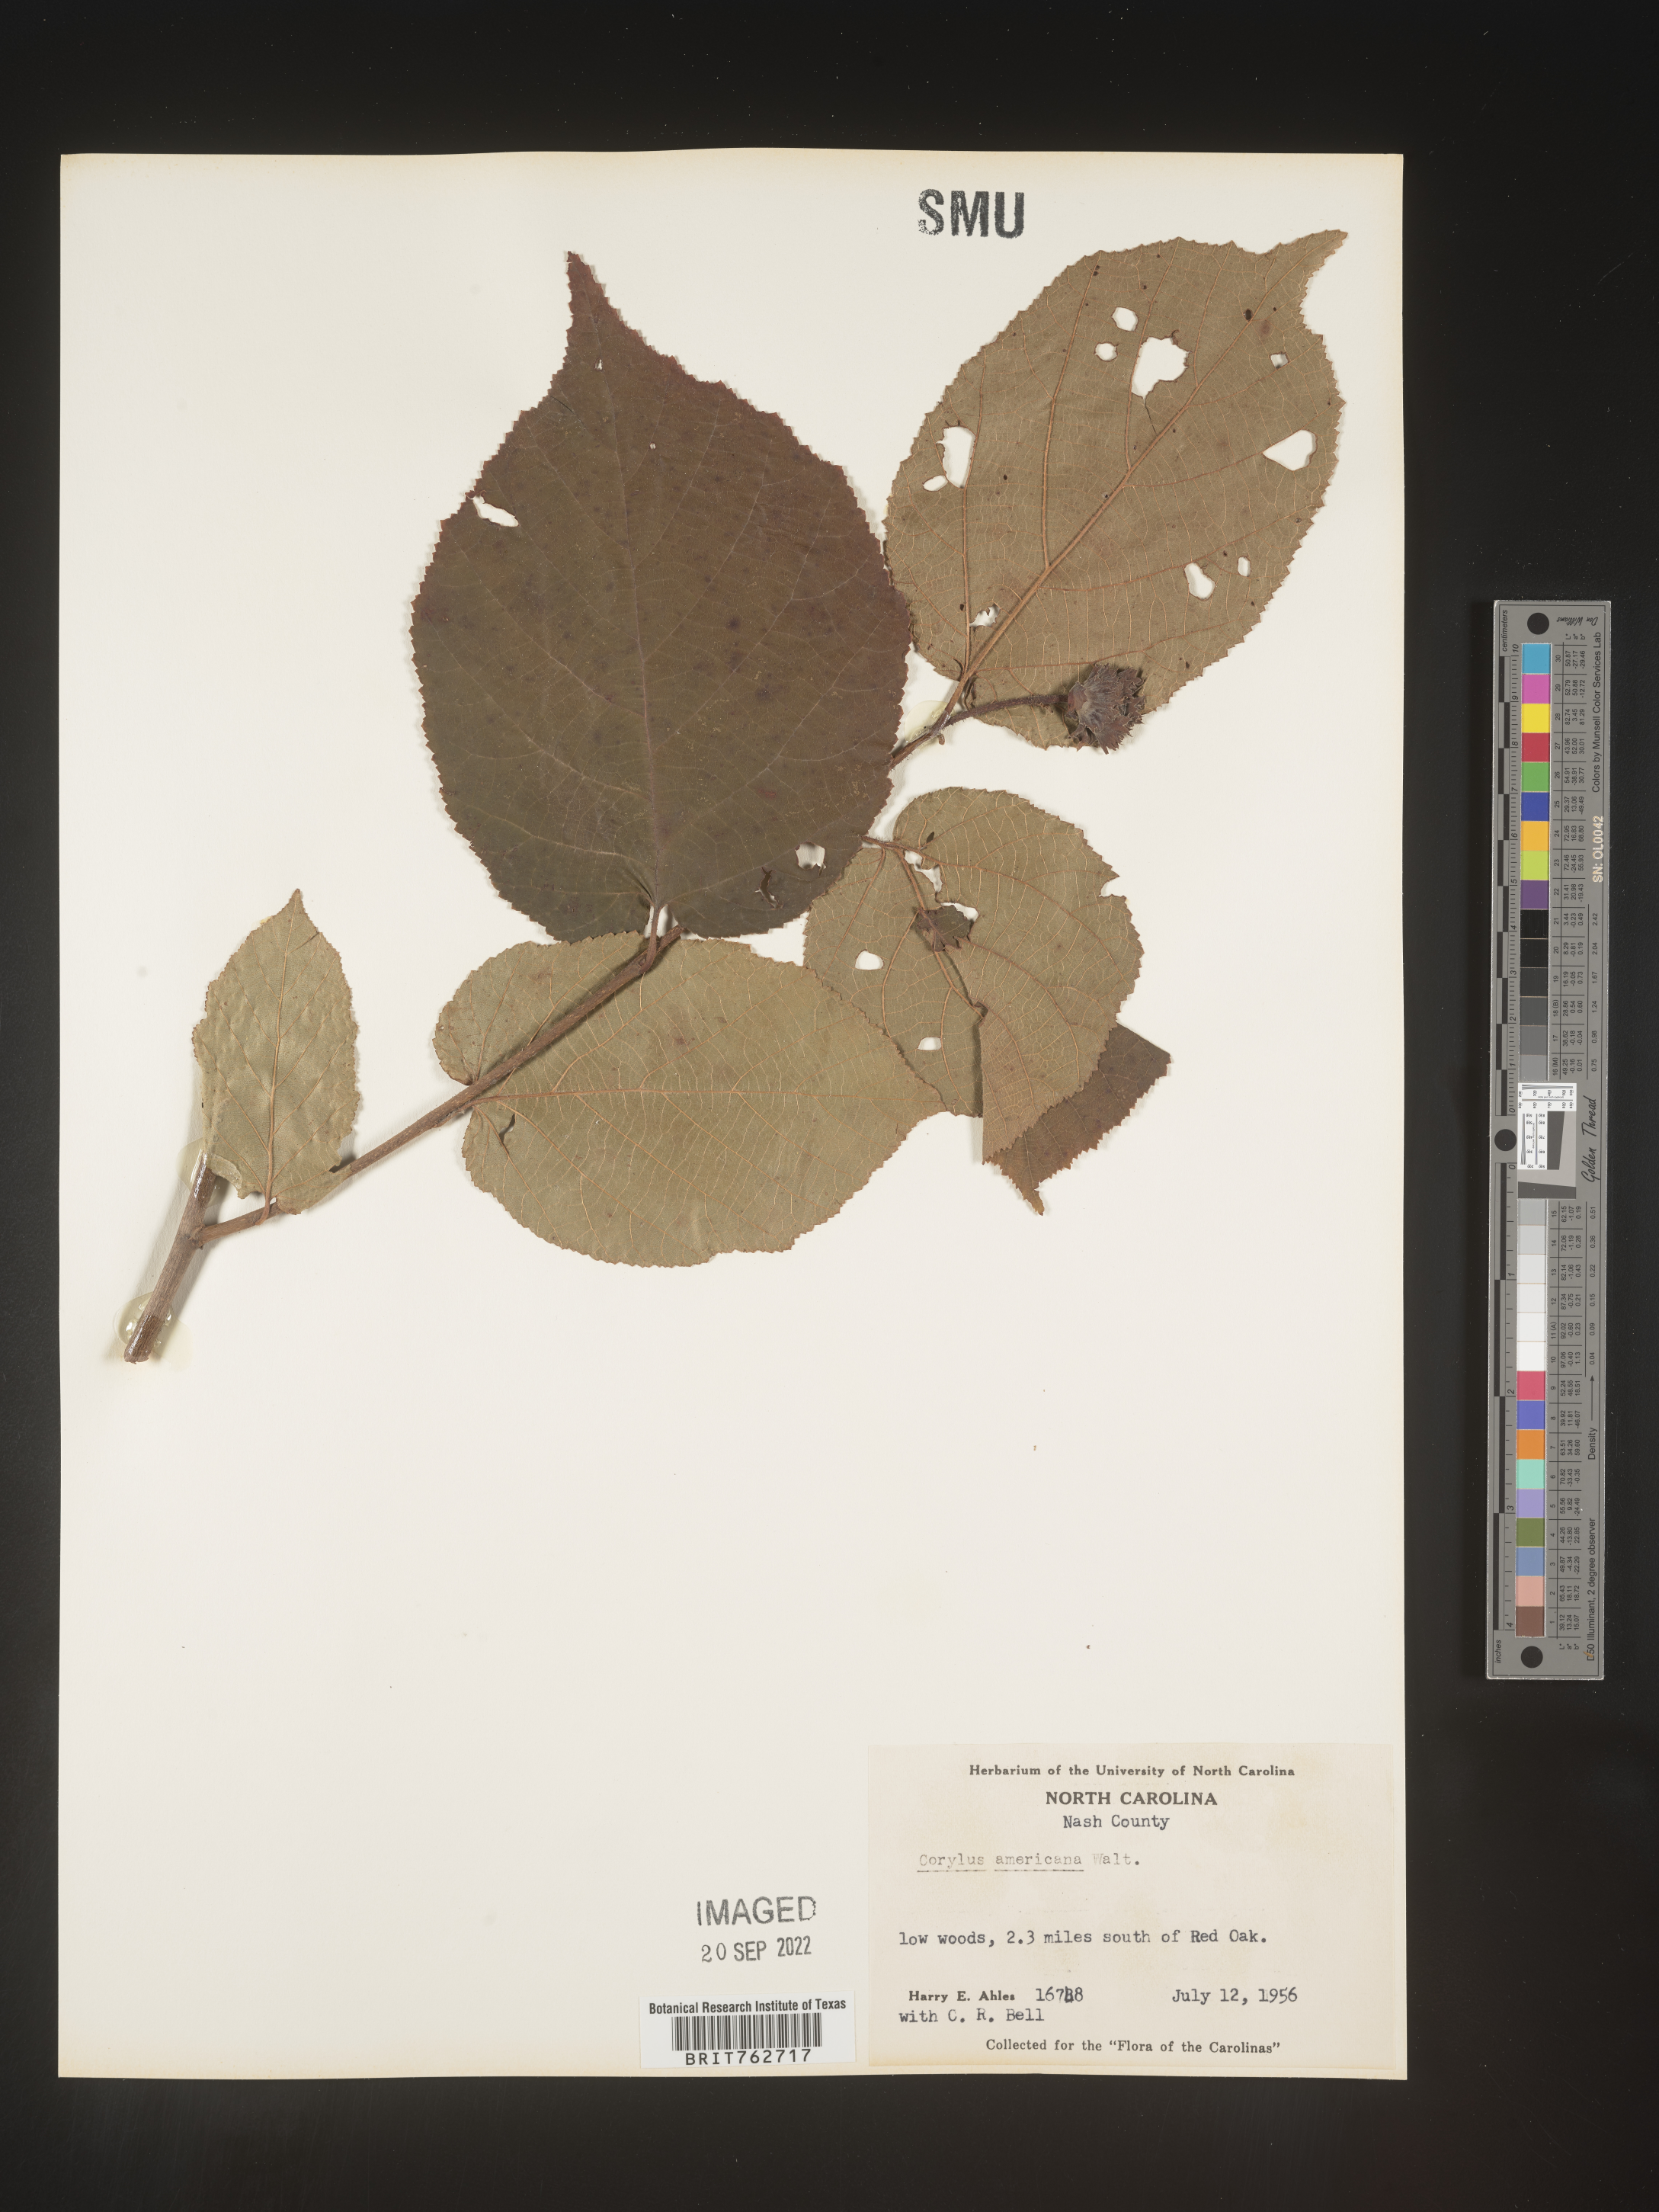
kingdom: Plantae
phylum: Tracheophyta
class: Magnoliopsida
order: Fagales
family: Betulaceae
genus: Corylus
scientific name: Corylus americana
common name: American hazel
